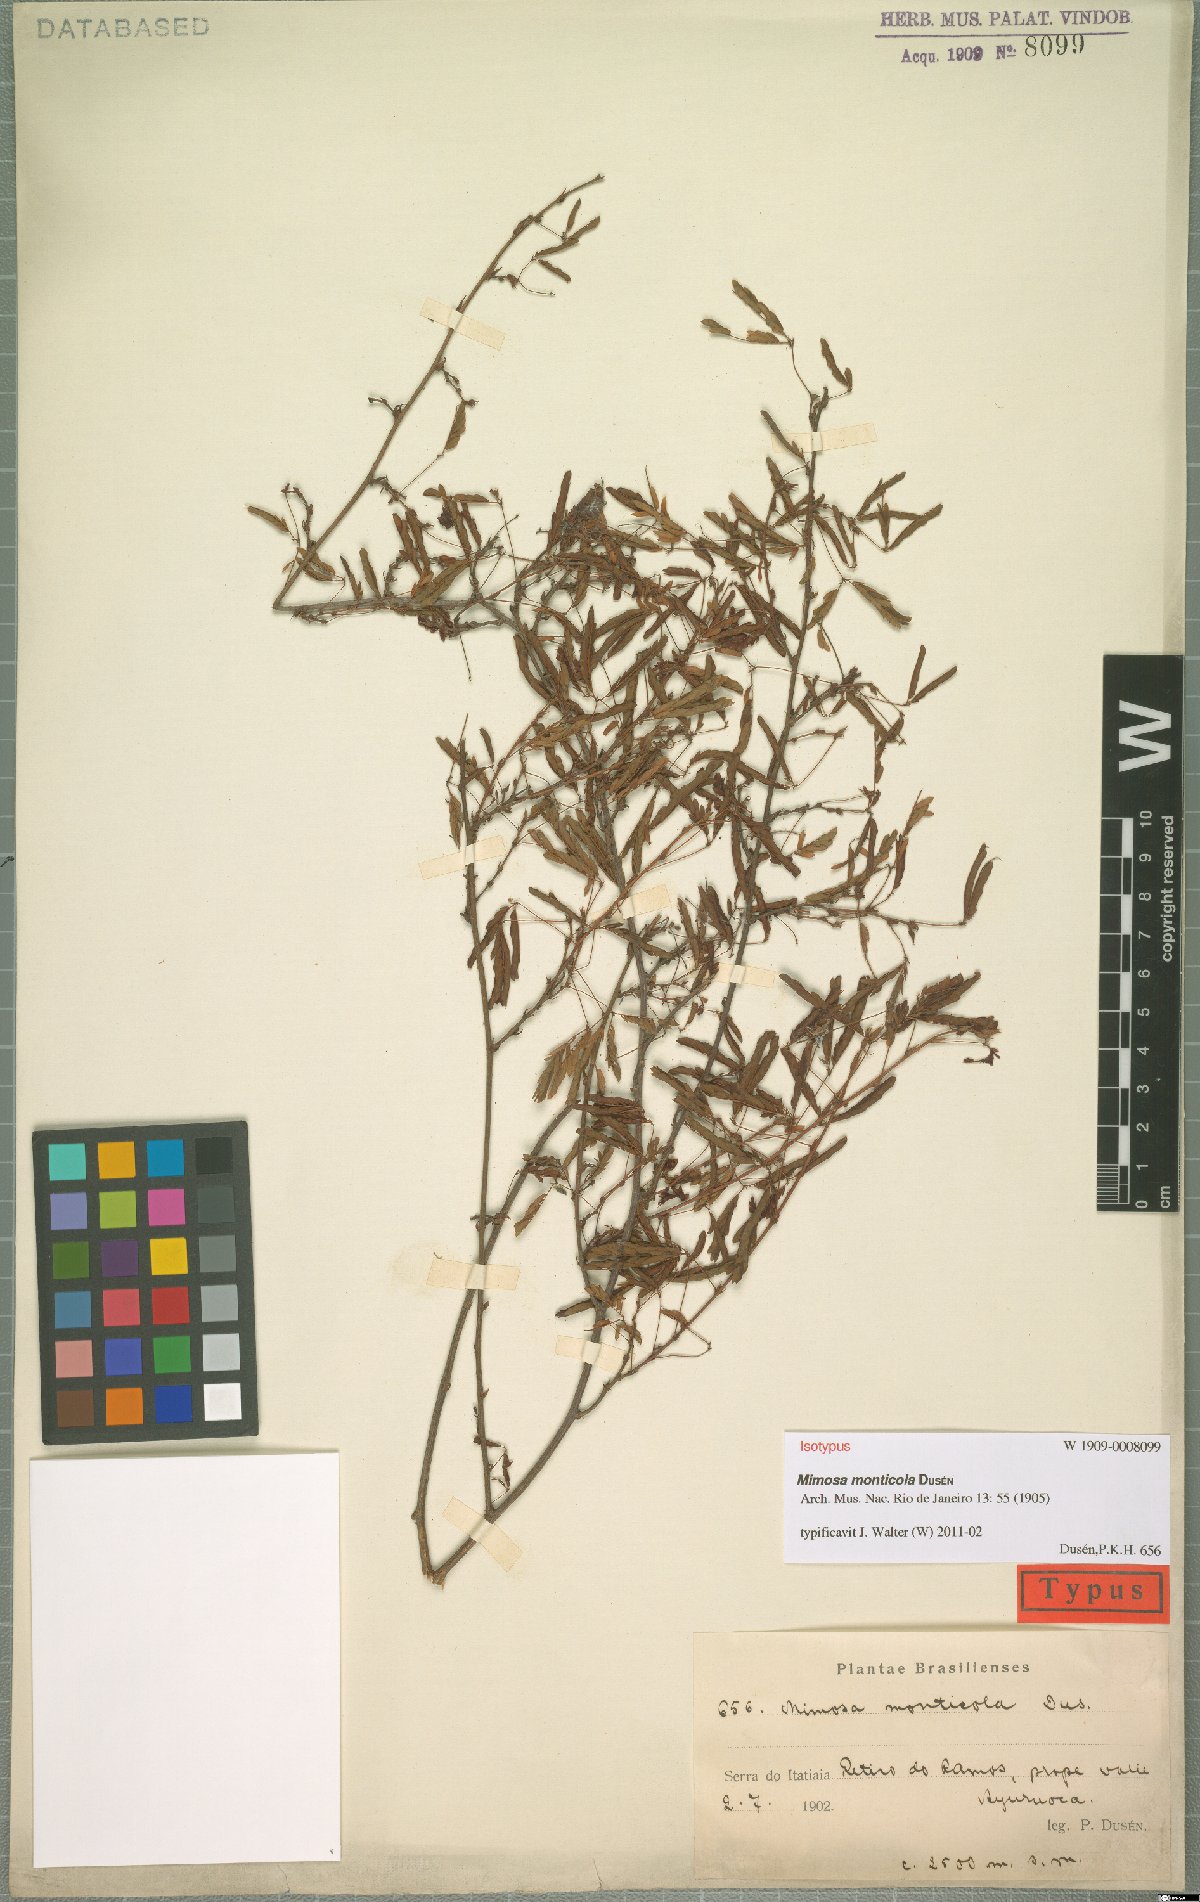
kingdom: Plantae
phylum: Tracheophyta
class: Magnoliopsida
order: Fabales
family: Fabaceae
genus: Mimosa
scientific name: Mimosa monticola
